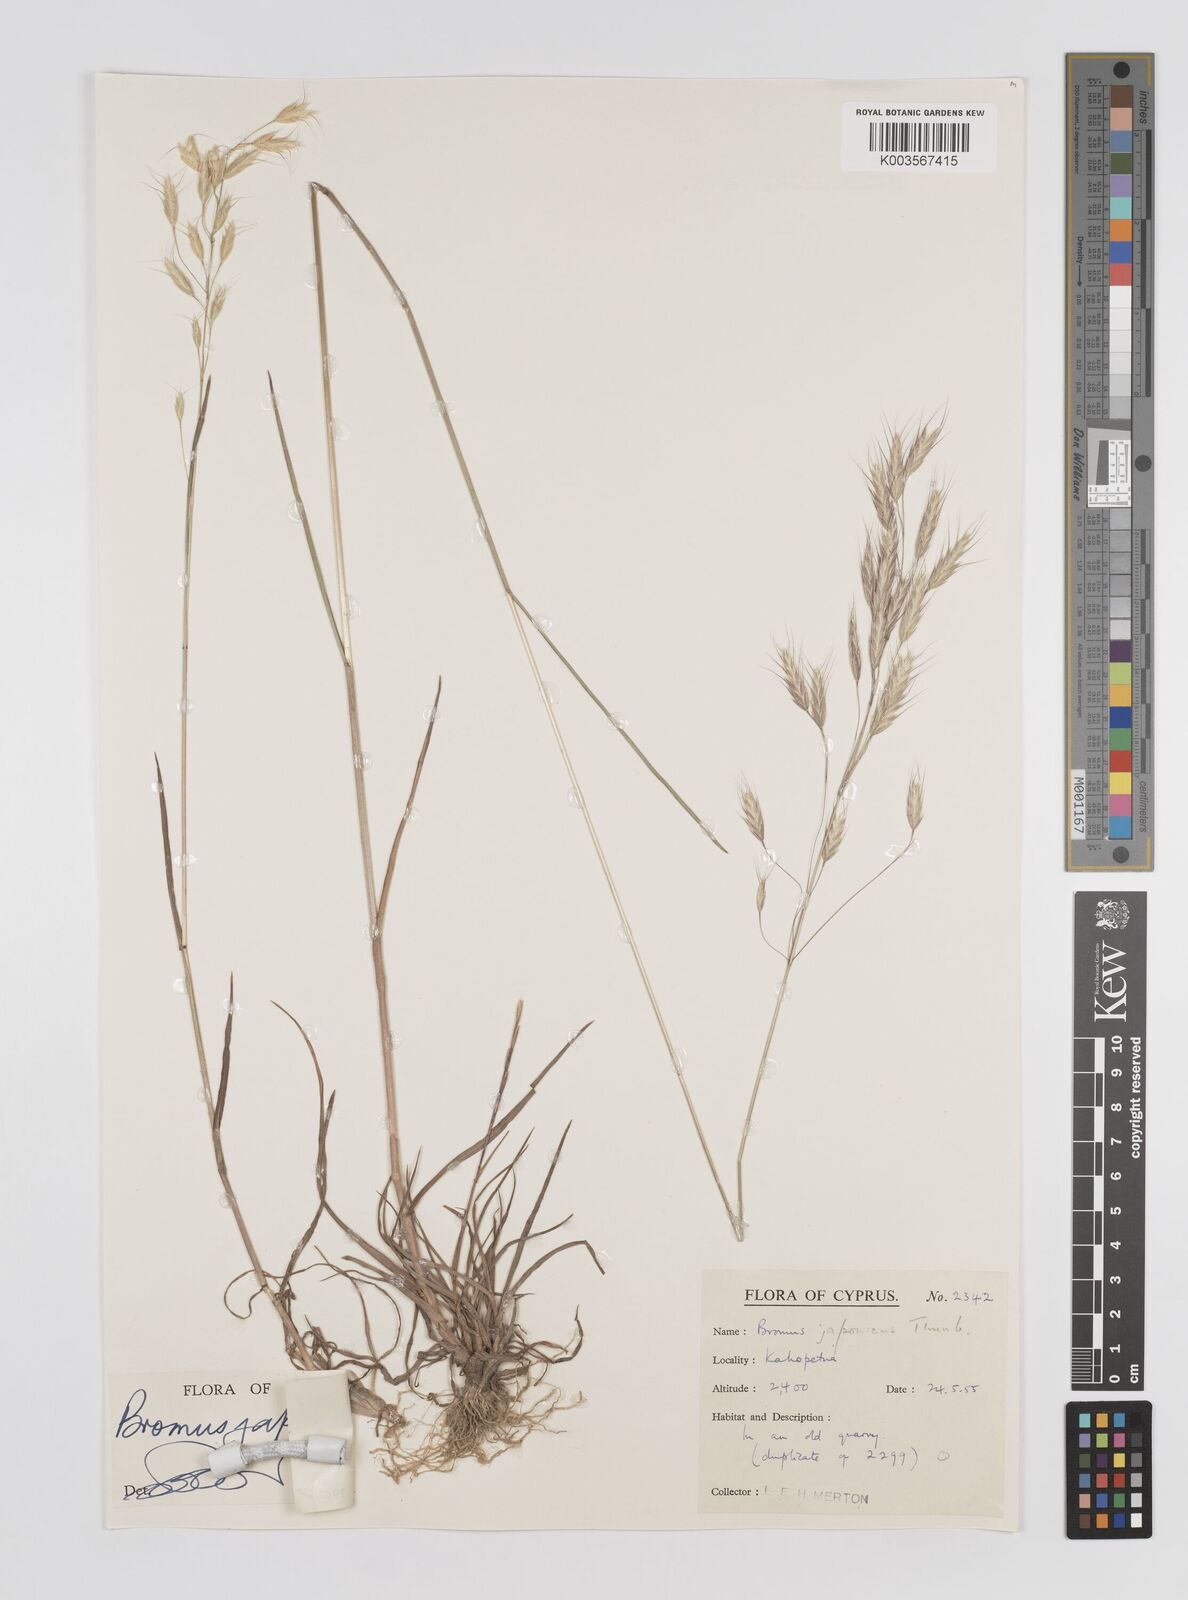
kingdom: Plantae
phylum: Tracheophyta
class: Liliopsida
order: Poales
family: Poaceae
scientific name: Poaceae
